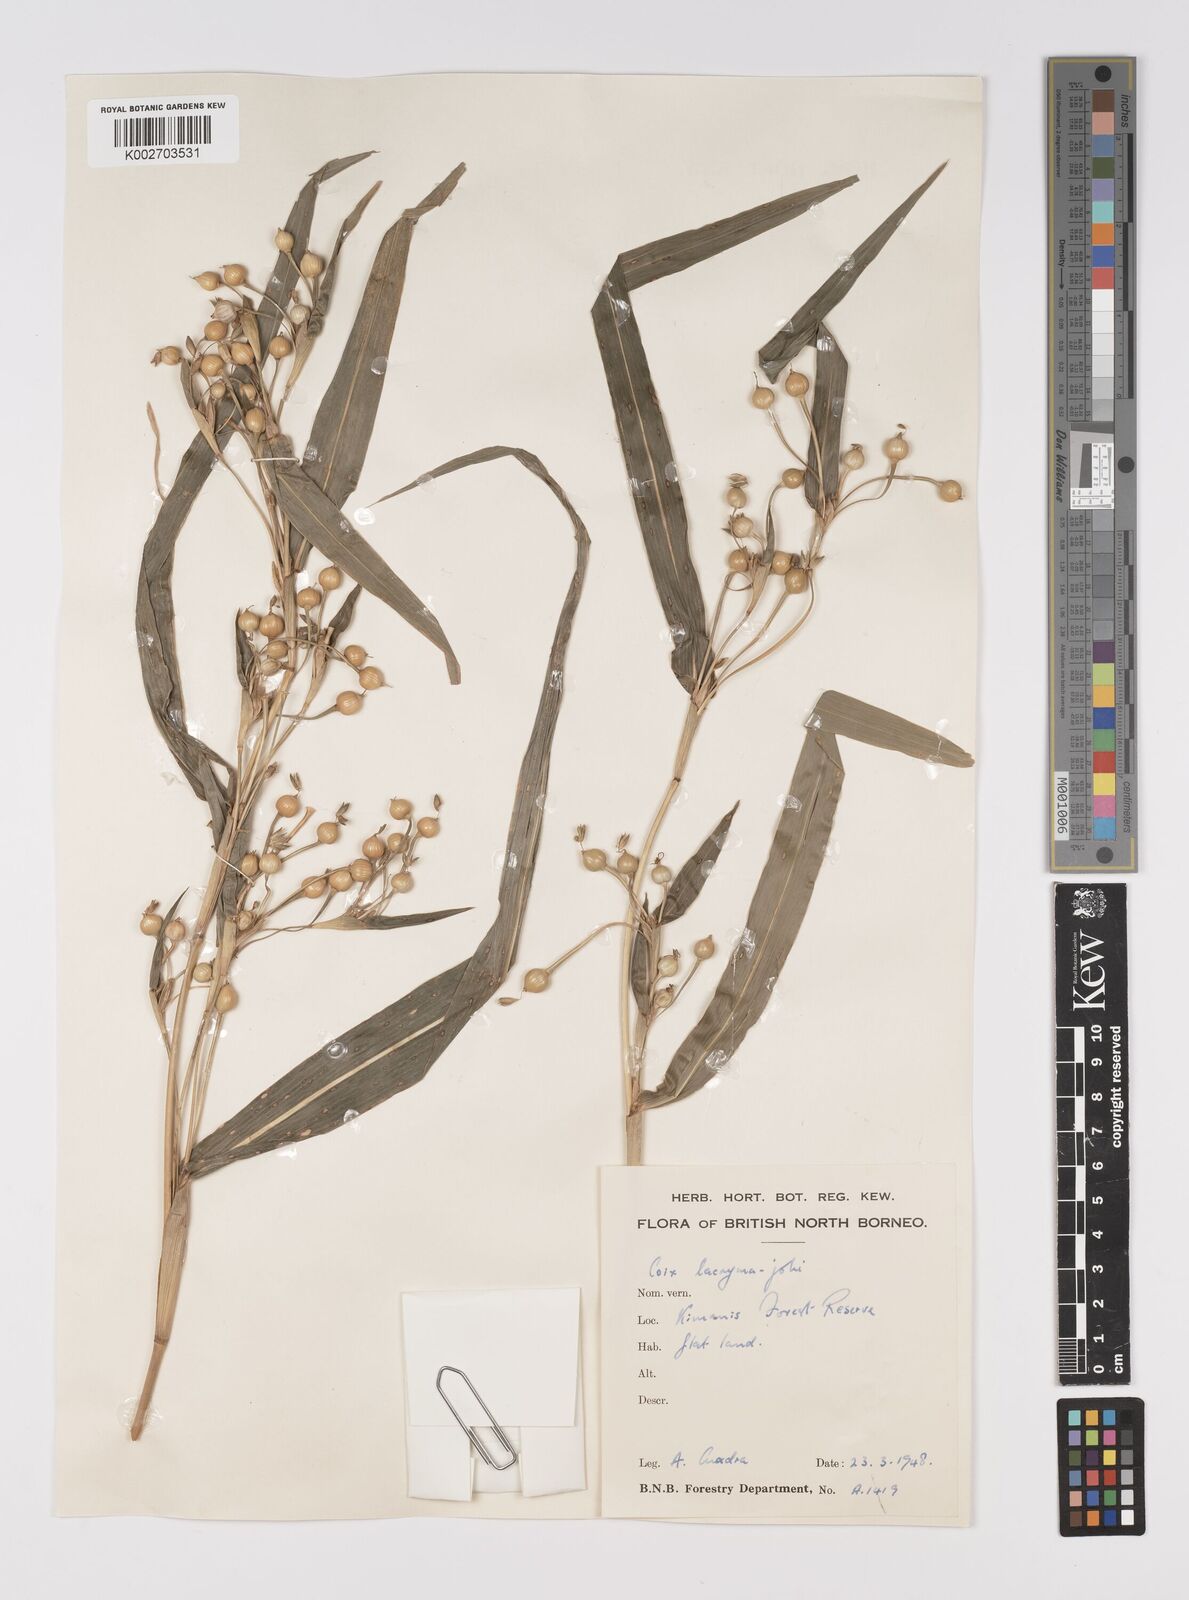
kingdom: Plantae
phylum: Tracheophyta
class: Liliopsida
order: Poales
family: Poaceae
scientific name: Poaceae
